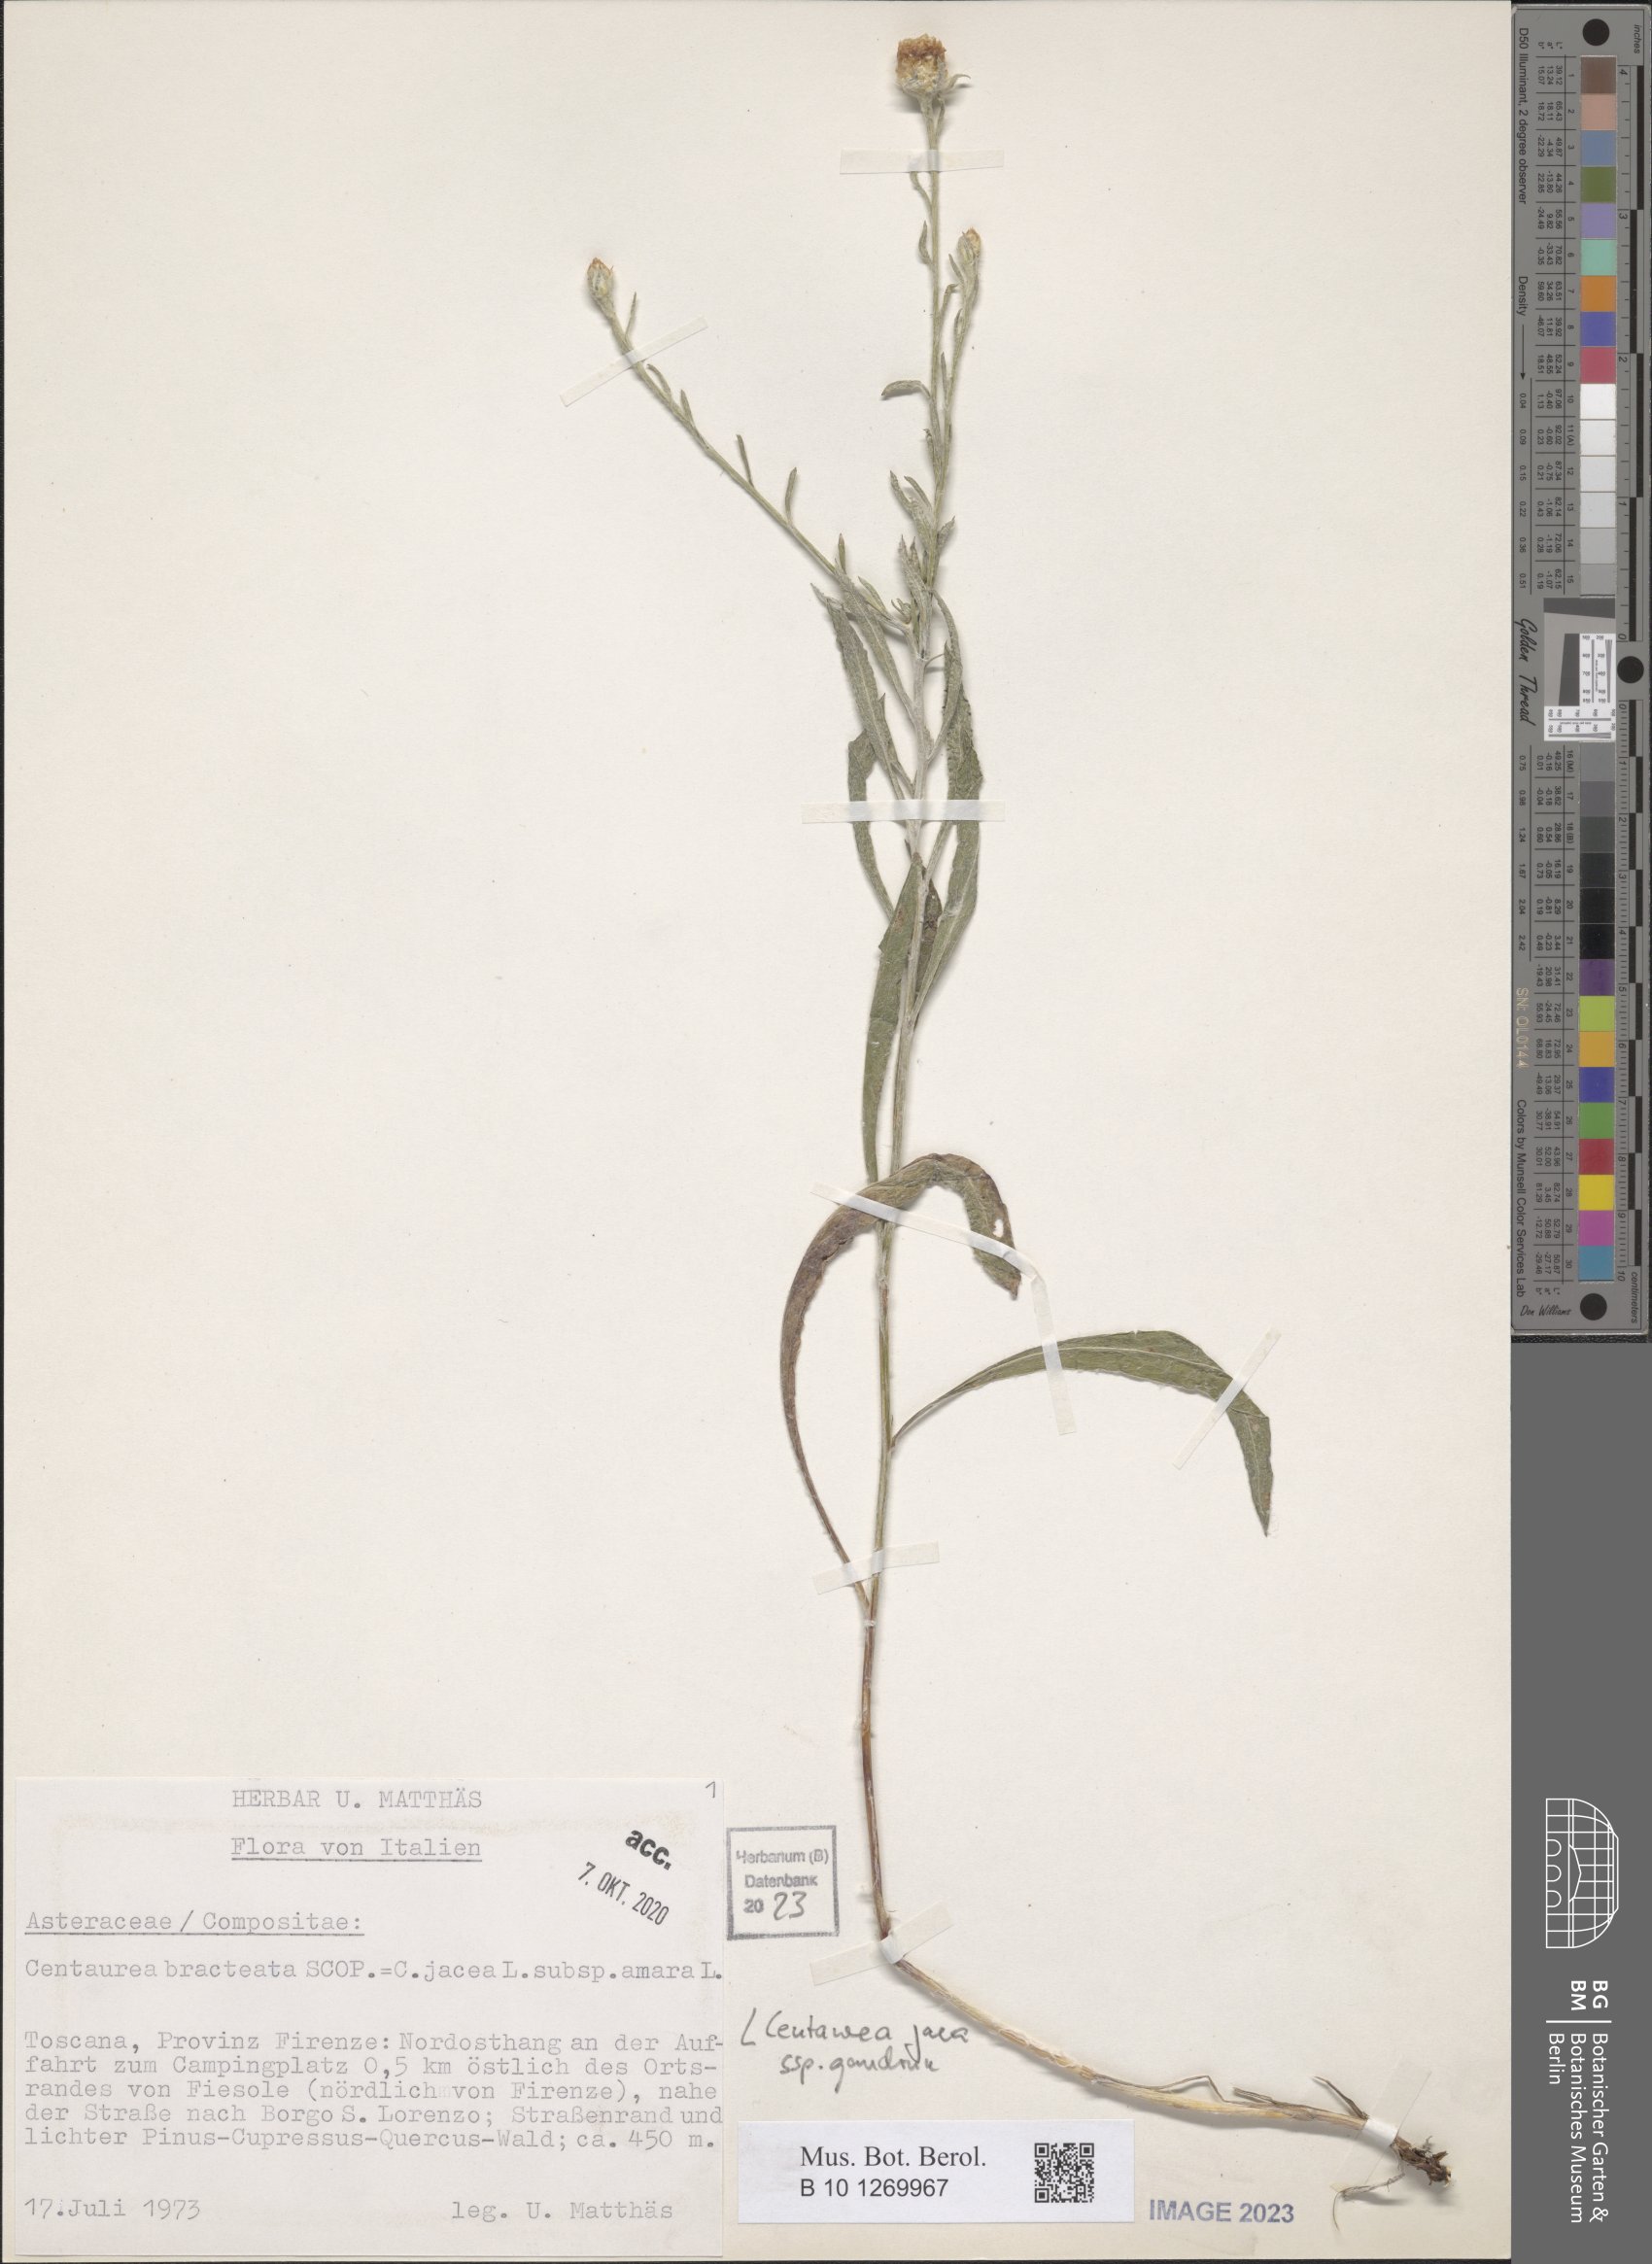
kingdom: Plantae
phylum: Tracheophyta
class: Magnoliopsida
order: Asterales
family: Asteraceae
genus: Centaurea
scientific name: Centaurea jacea
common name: Brown knapweed
